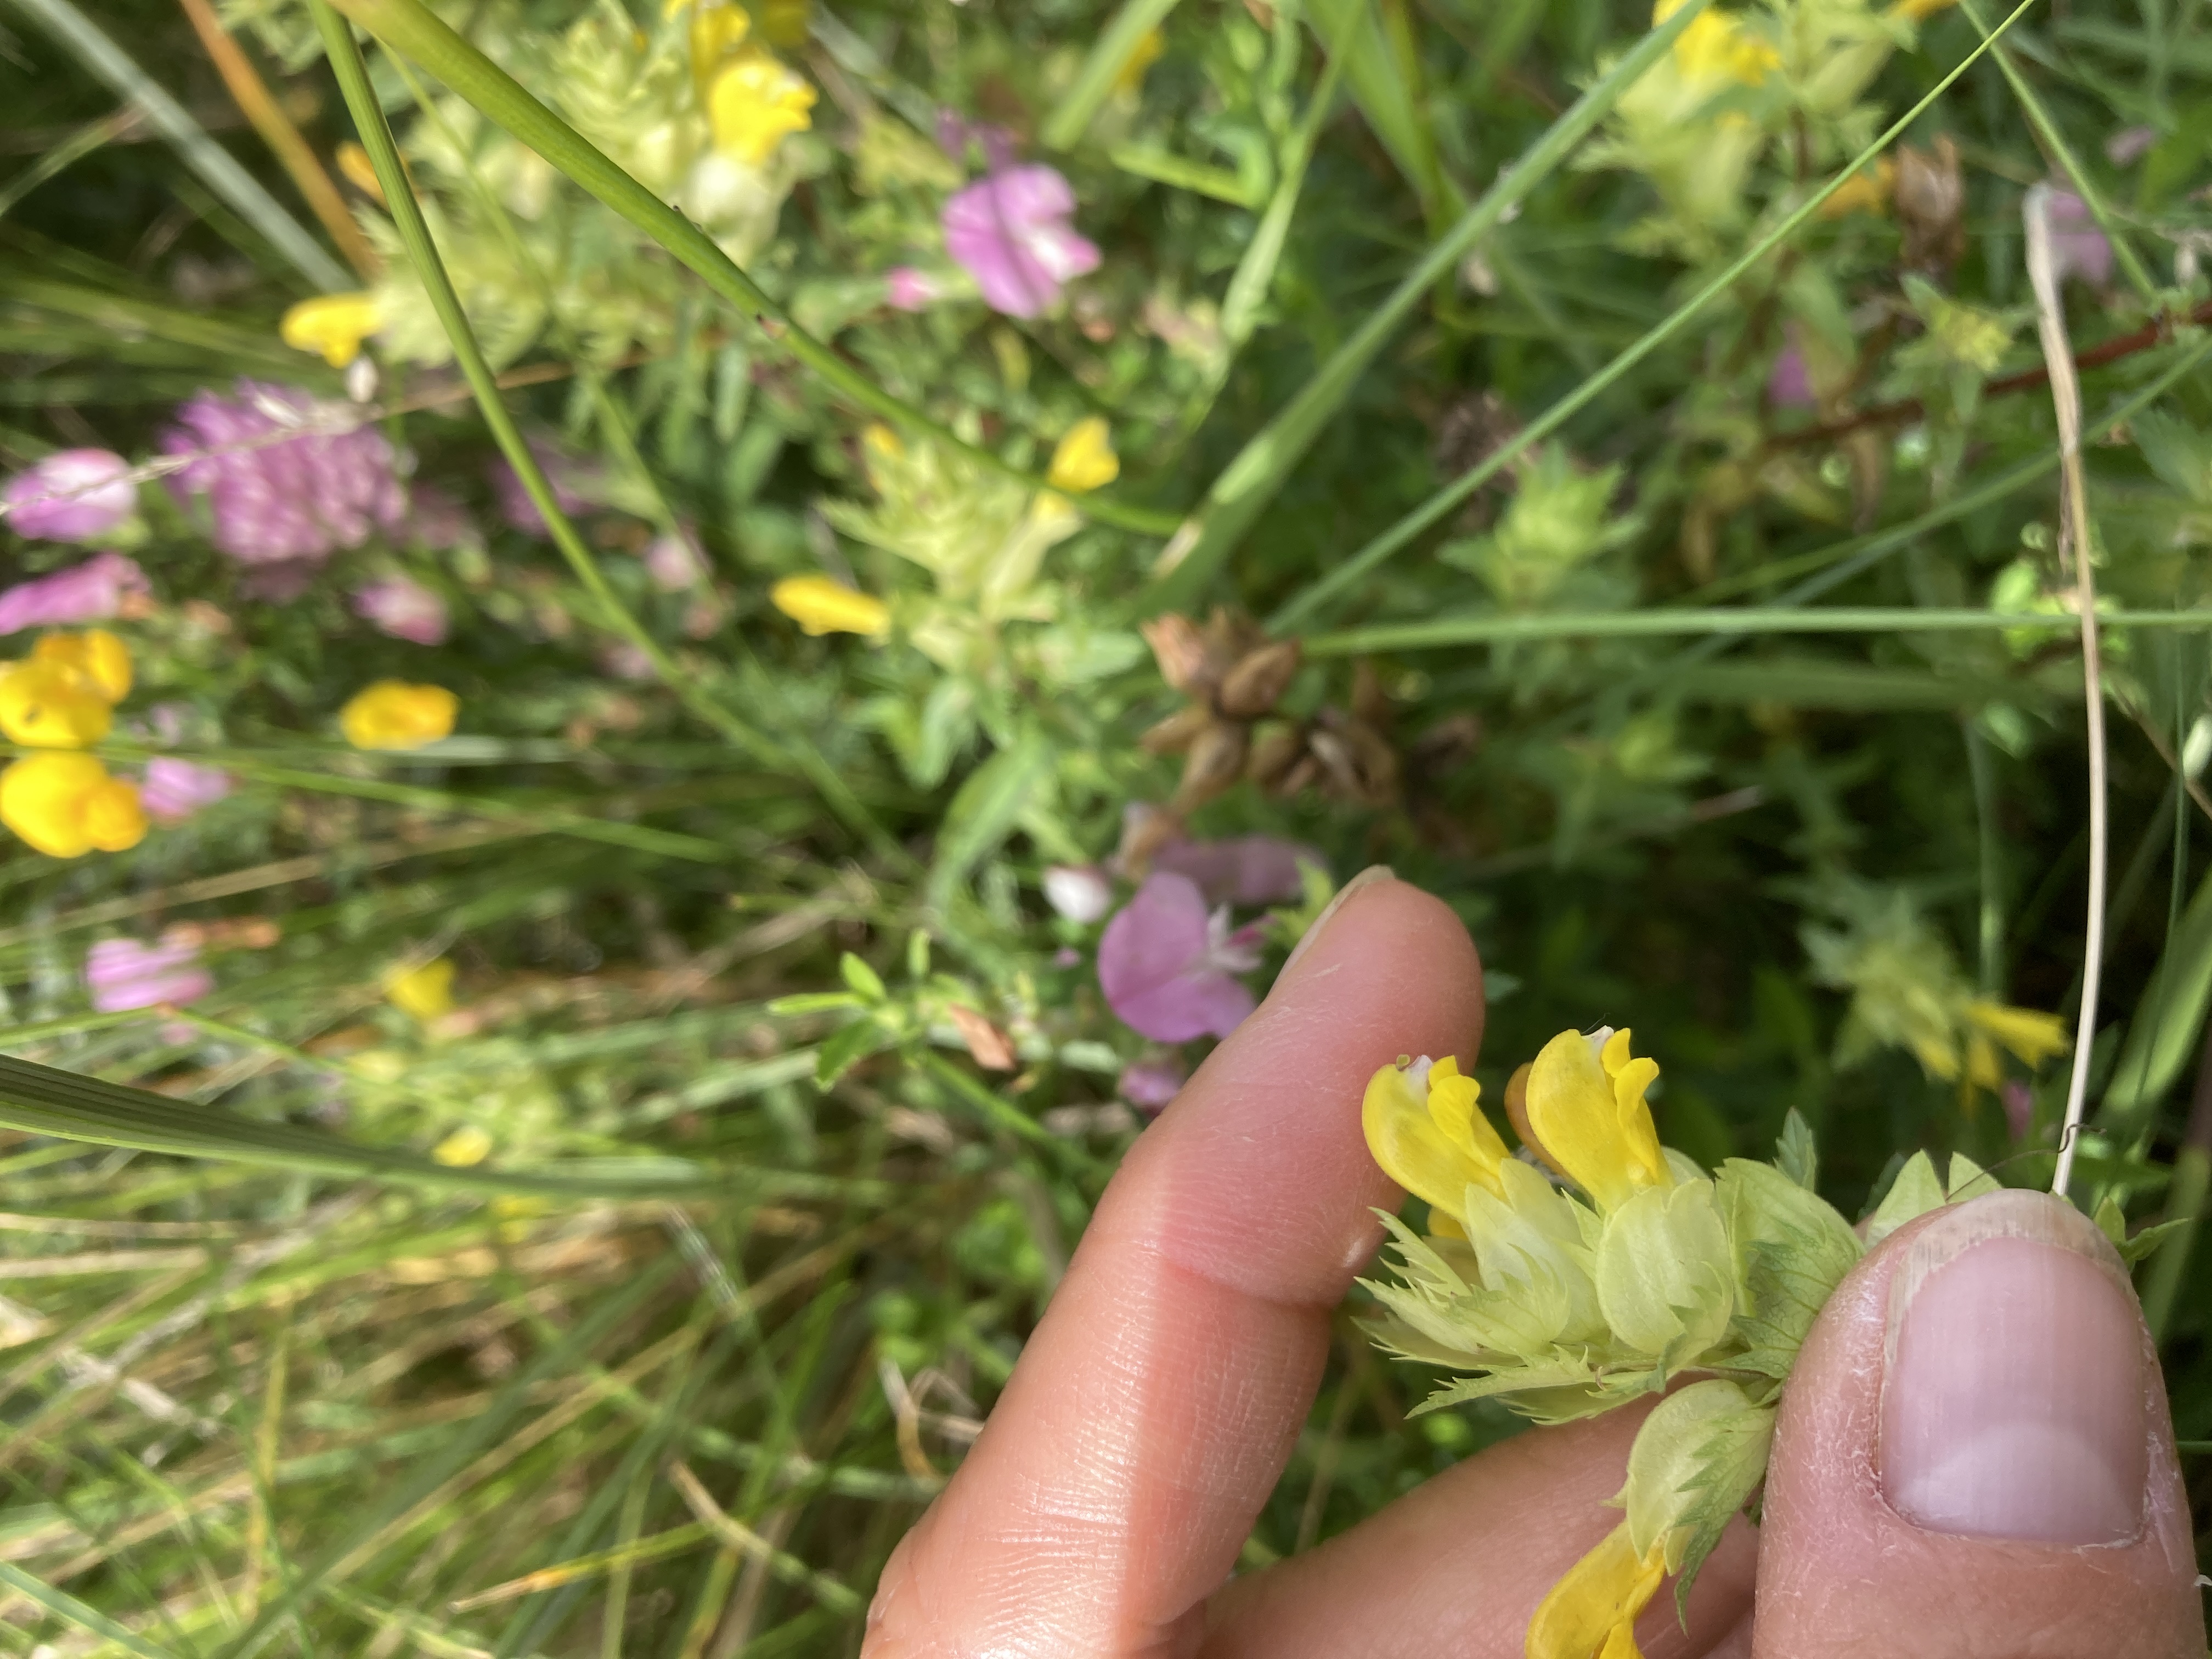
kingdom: Plantae
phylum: Tracheophyta
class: Magnoliopsida
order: Lamiales
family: Orobanchaceae
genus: Rhinanthus
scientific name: Rhinanthus
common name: Stor skjaller
